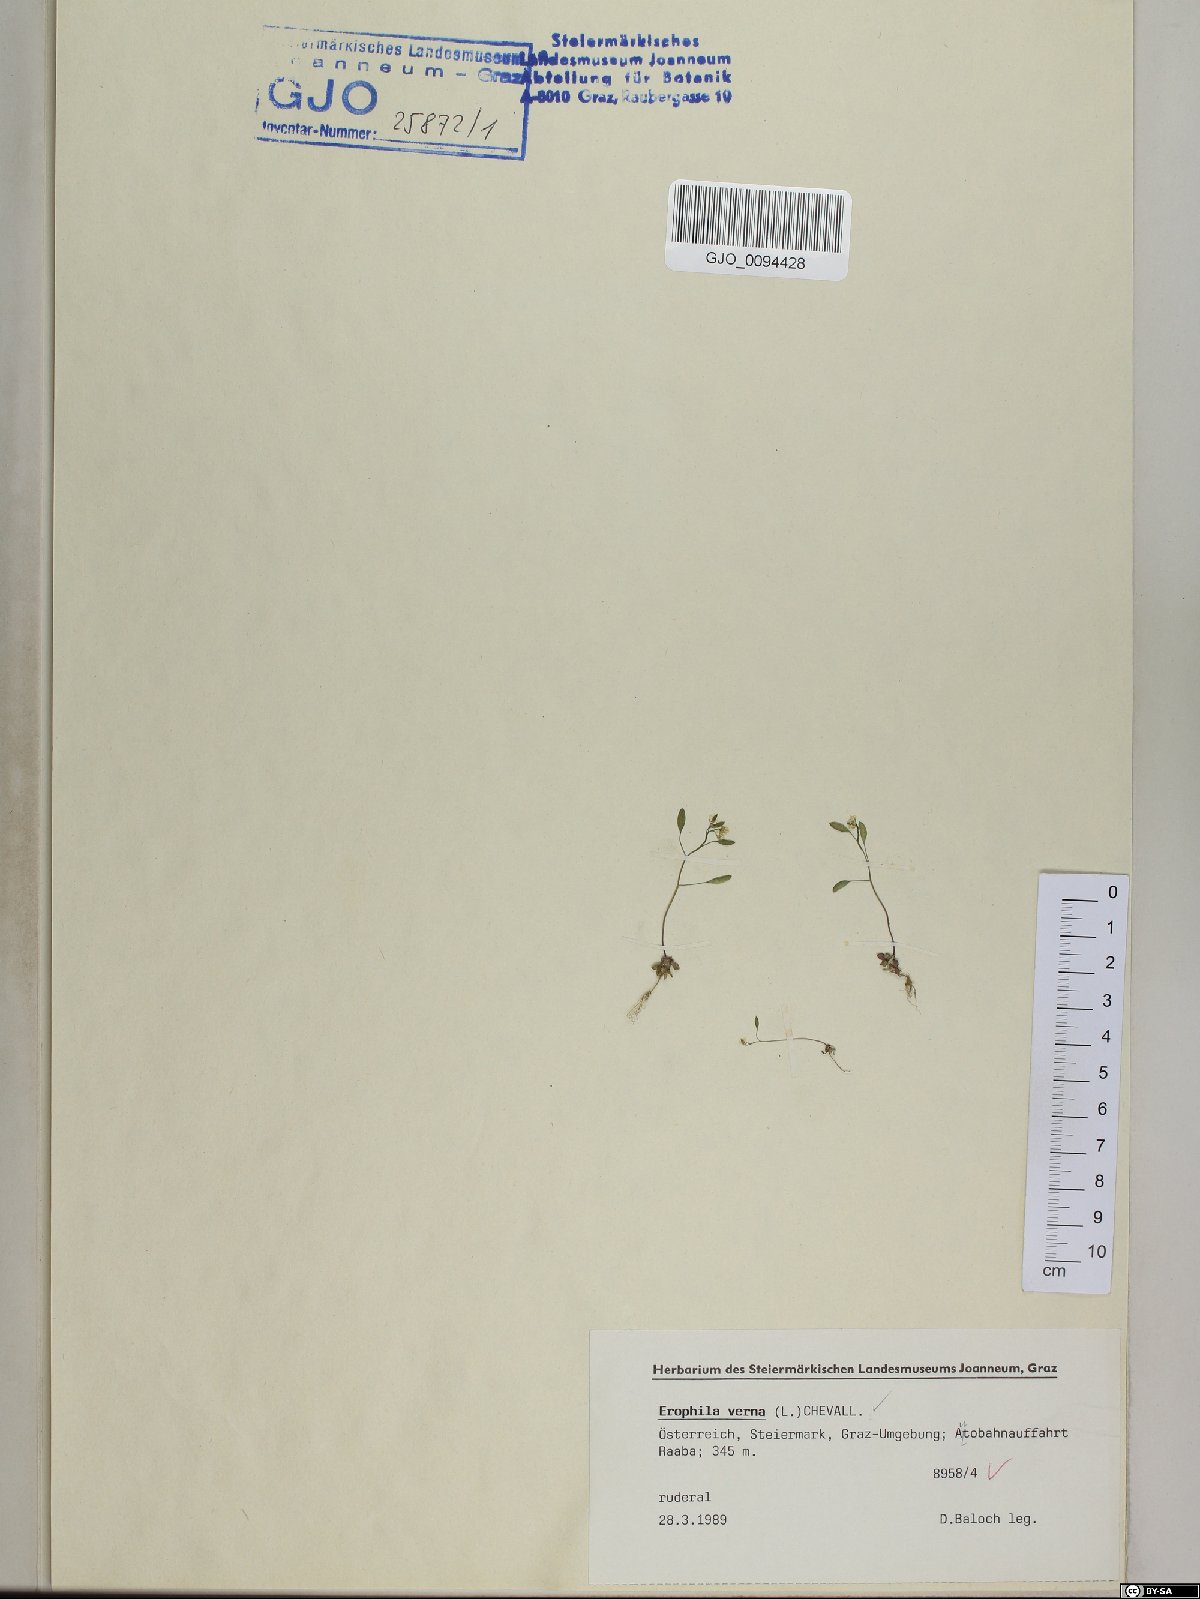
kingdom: Plantae
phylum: Tracheophyta
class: Magnoliopsida
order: Brassicales
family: Brassicaceae
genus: Draba
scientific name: Draba verna
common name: Spring draba
